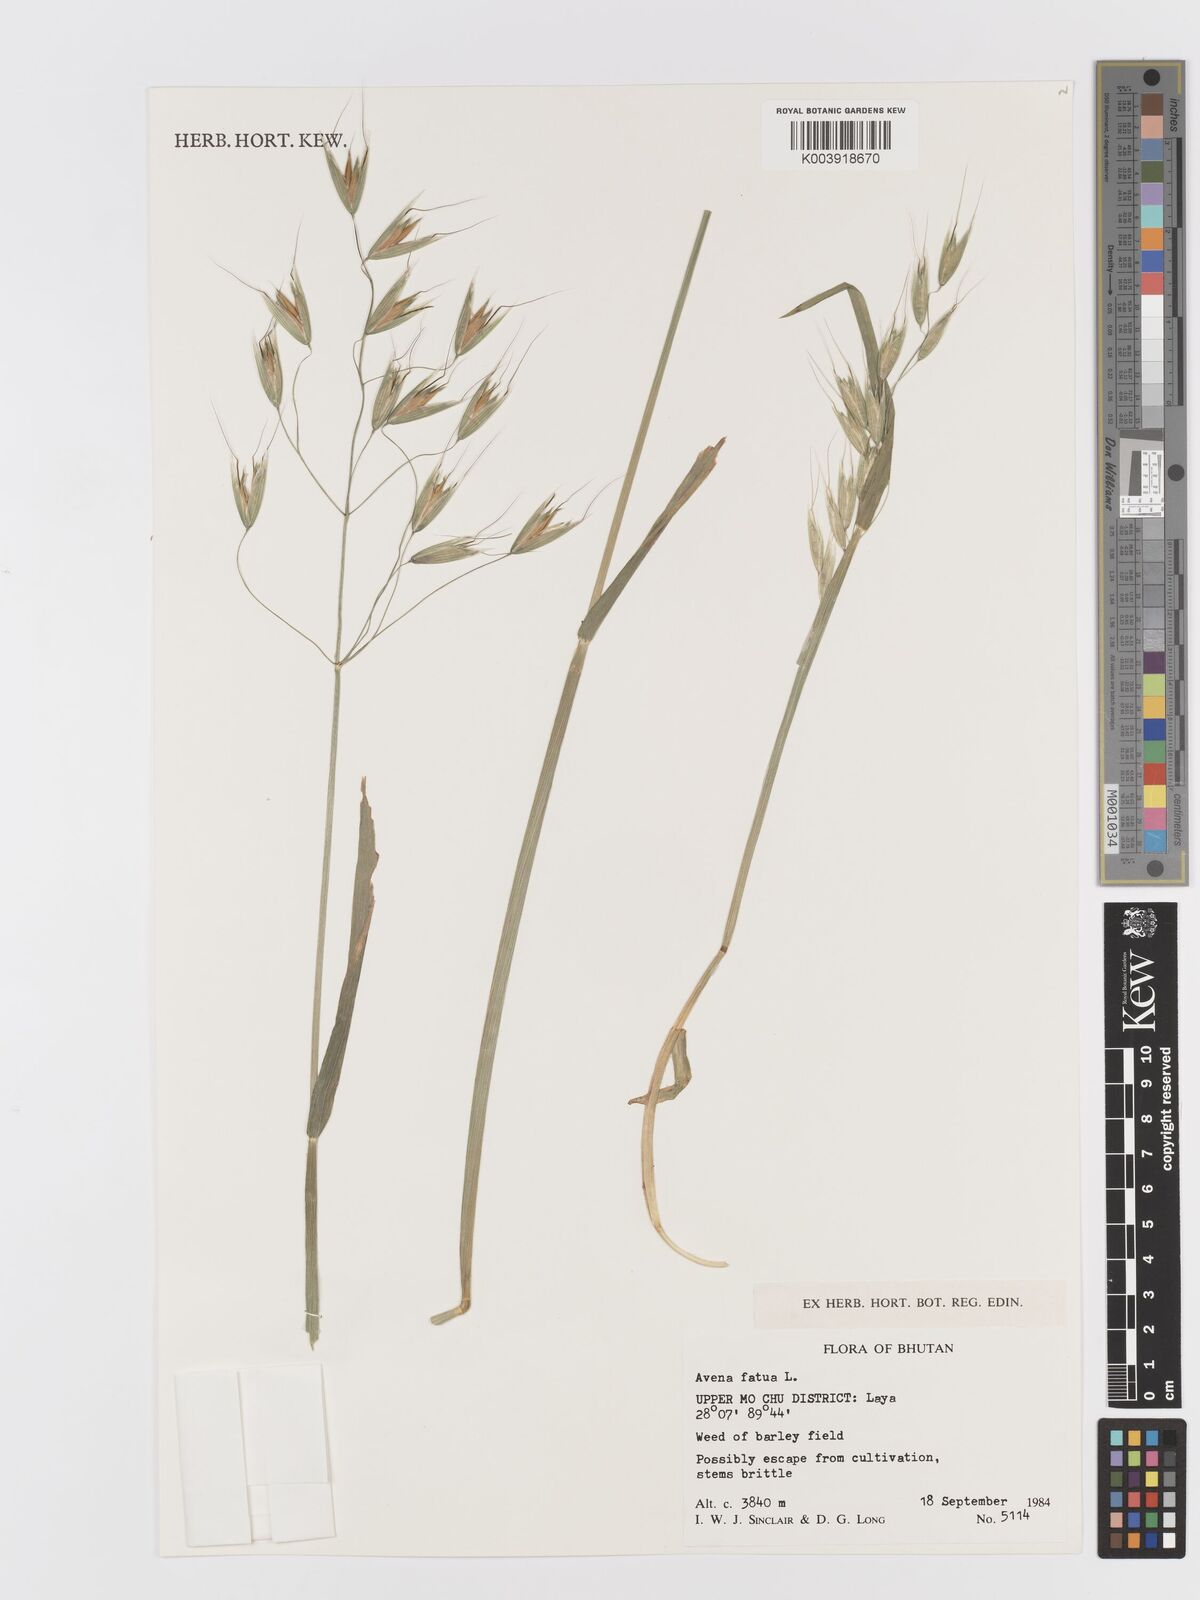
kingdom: Plantae
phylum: Tracheophyta
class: Liliopsida
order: Poales
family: Poaceae
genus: Avena
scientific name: Avena fatua
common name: Wild oat
